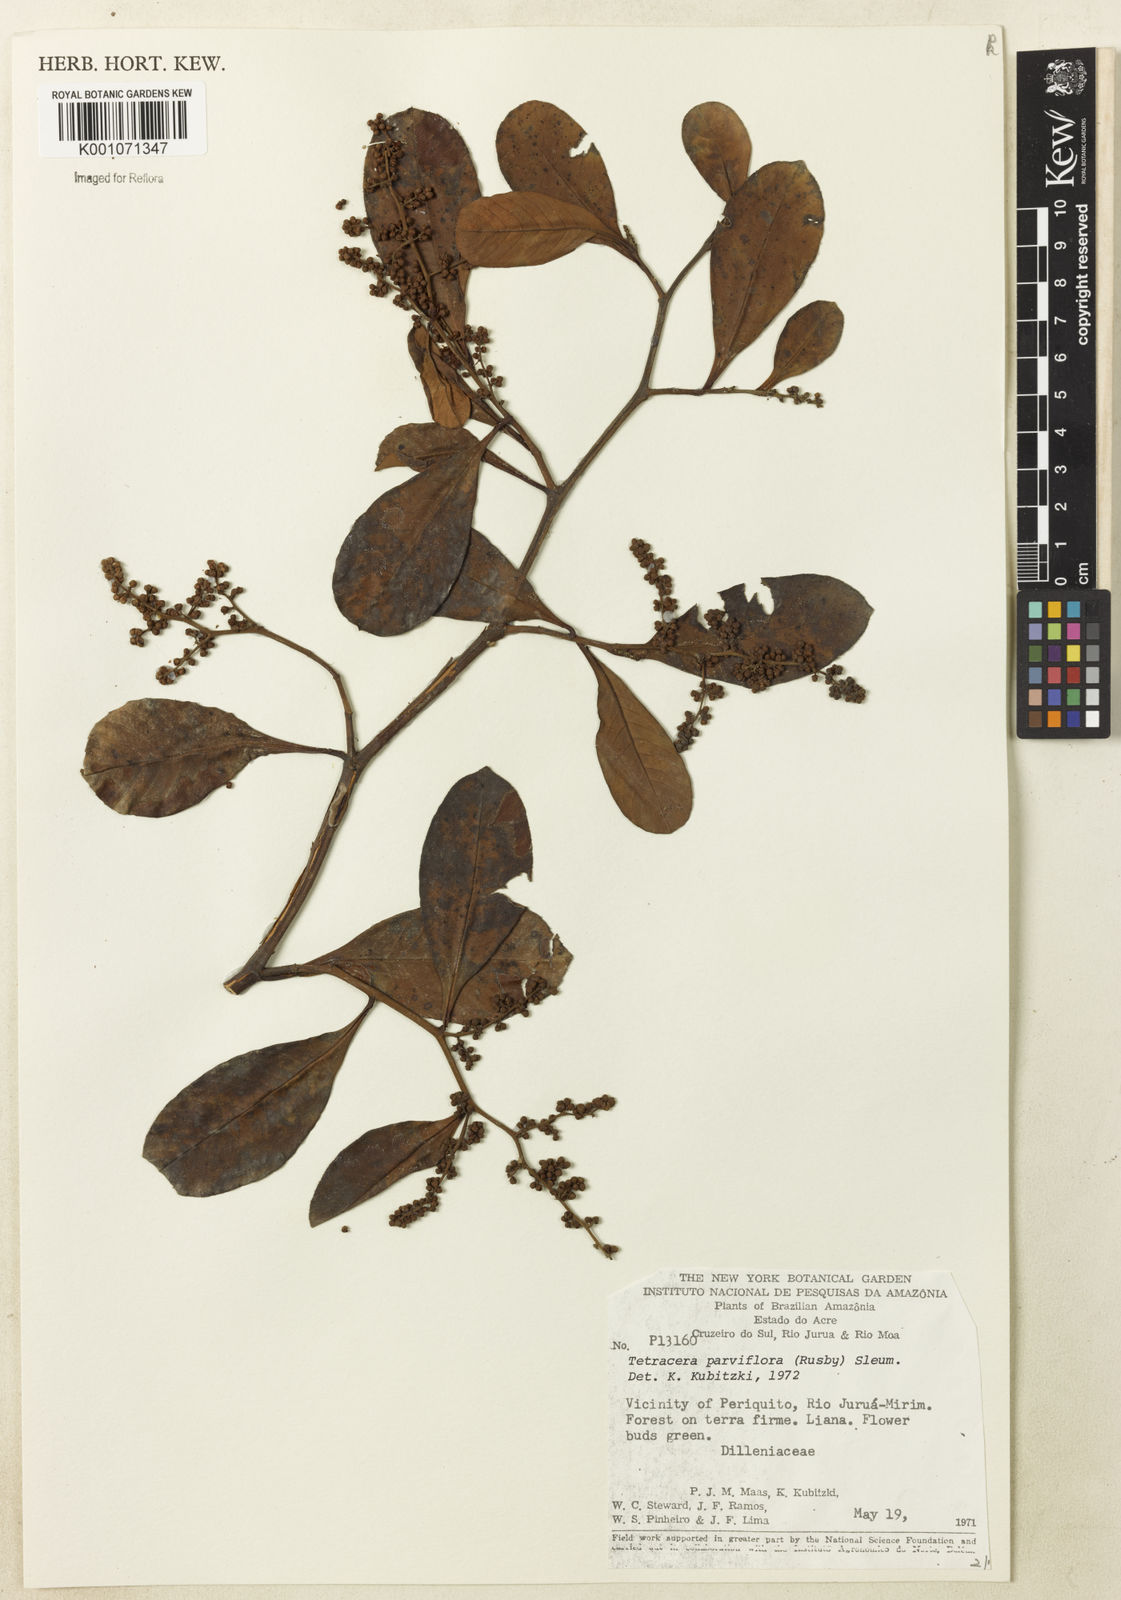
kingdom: Plantae
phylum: Tracheophyta
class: Magnoliopsida
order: Dilleniales
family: Dilleniaceae
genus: Tetracera
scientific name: Tetracera parviflora
